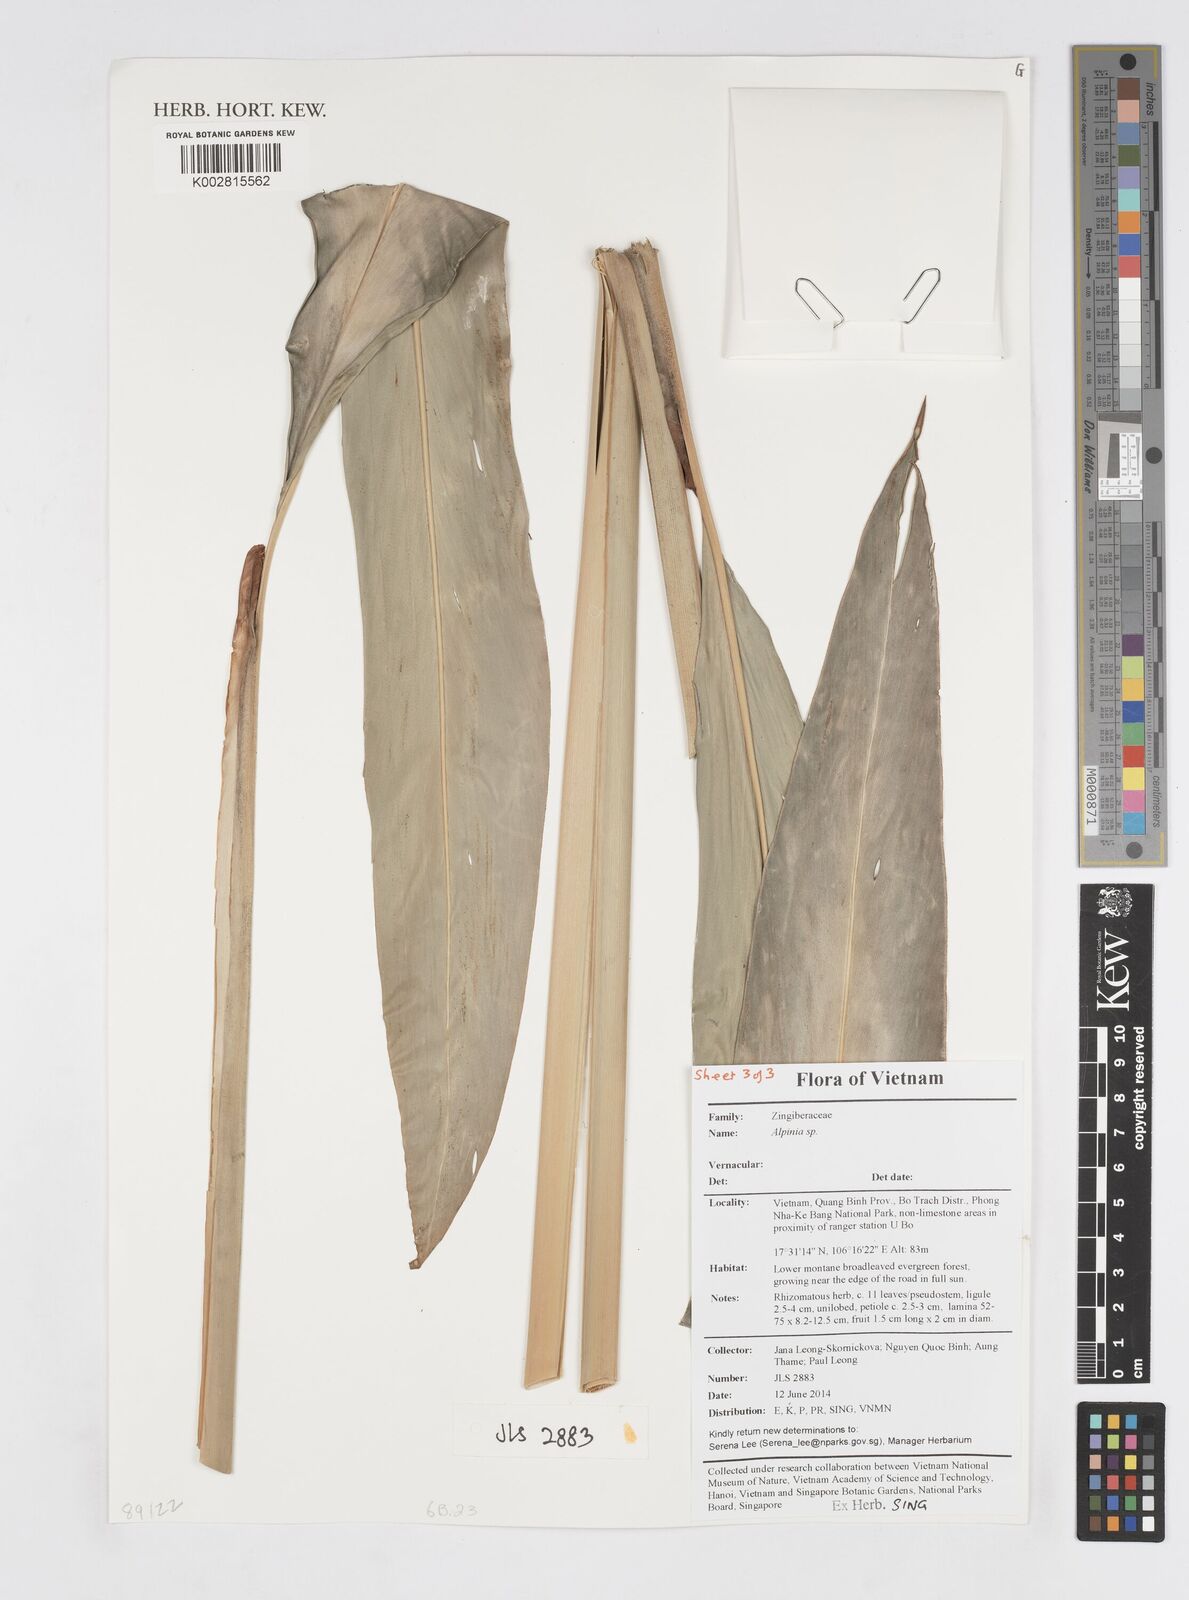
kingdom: Plantae
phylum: Tracheophyta
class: Liliopsida
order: Zingiberales
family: Zingiberaceae
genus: Alpinia
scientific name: Alpinia
